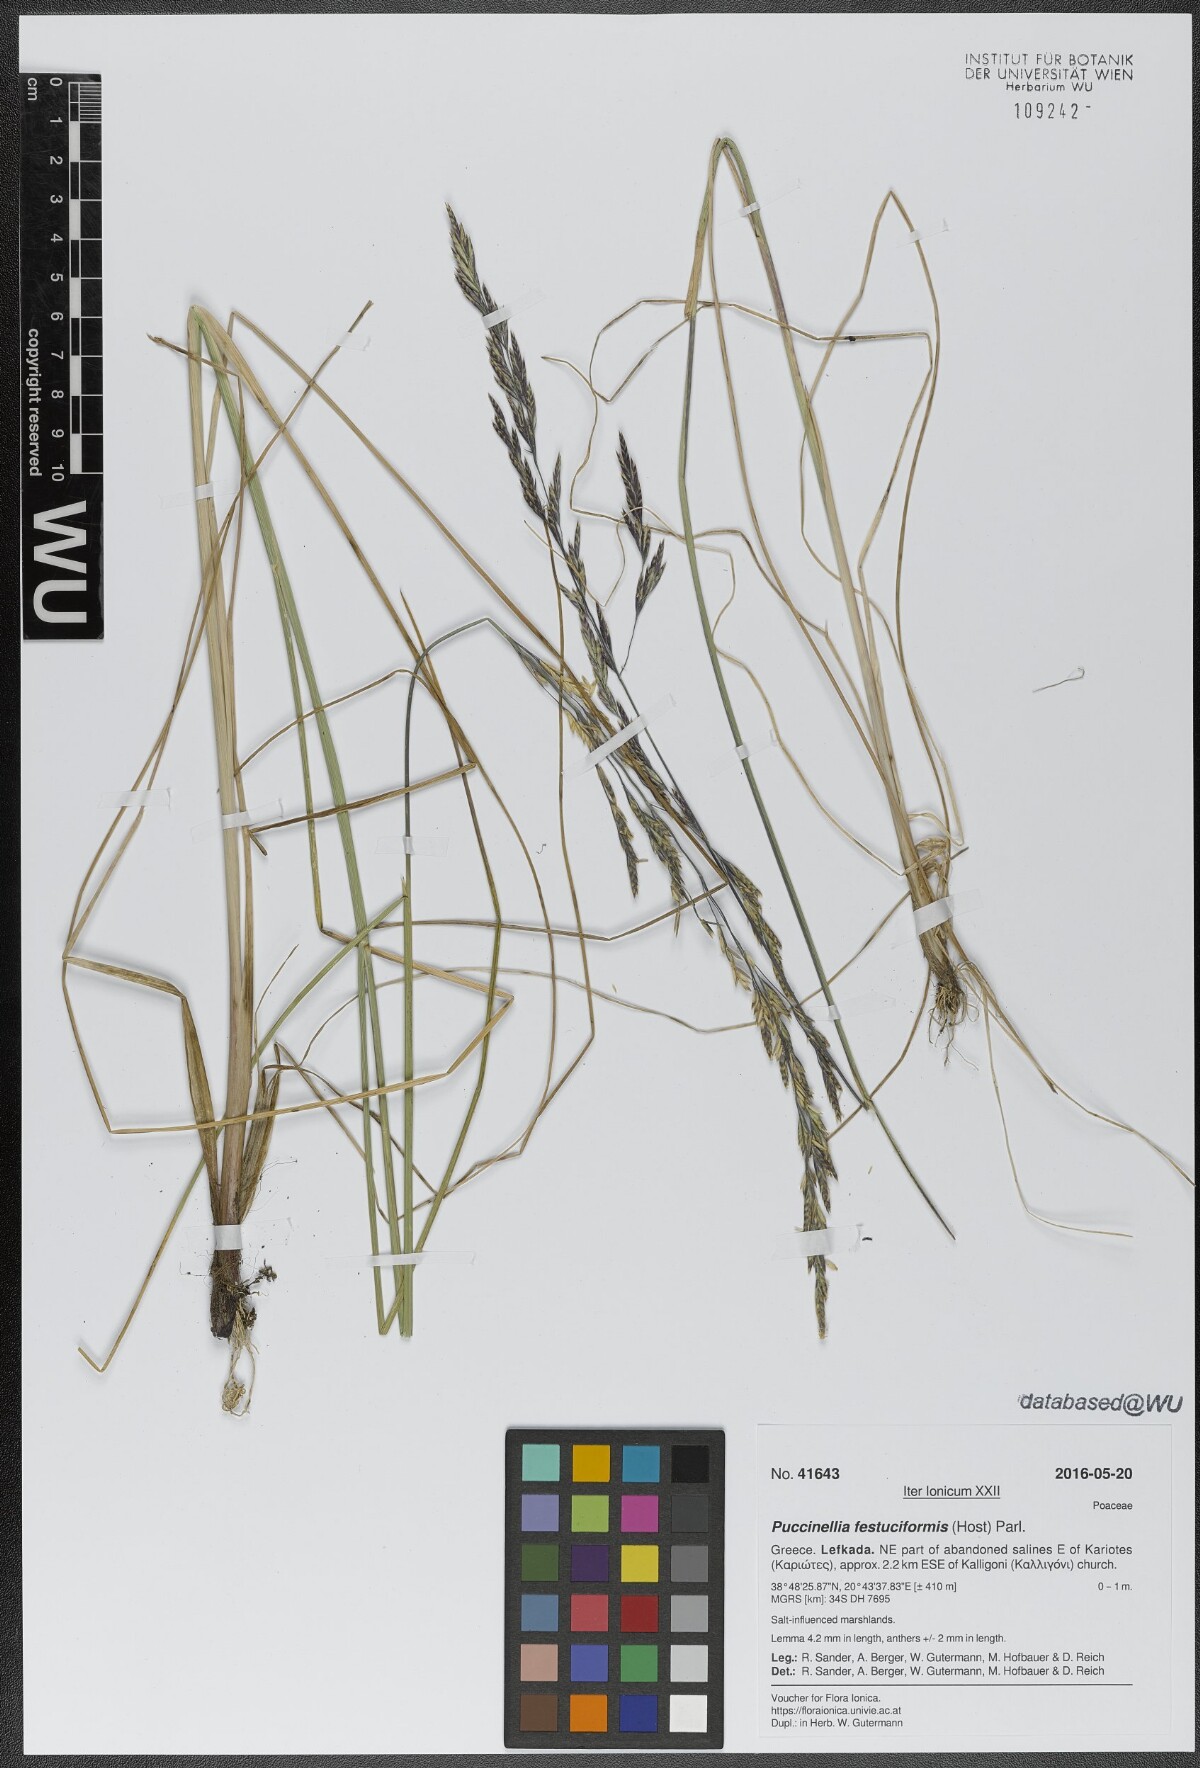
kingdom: Plantae
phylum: Tracheophyta
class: Liliopsida
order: Poales
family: Poaceae
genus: Puccinellia
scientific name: Puccinellia festuciformis
